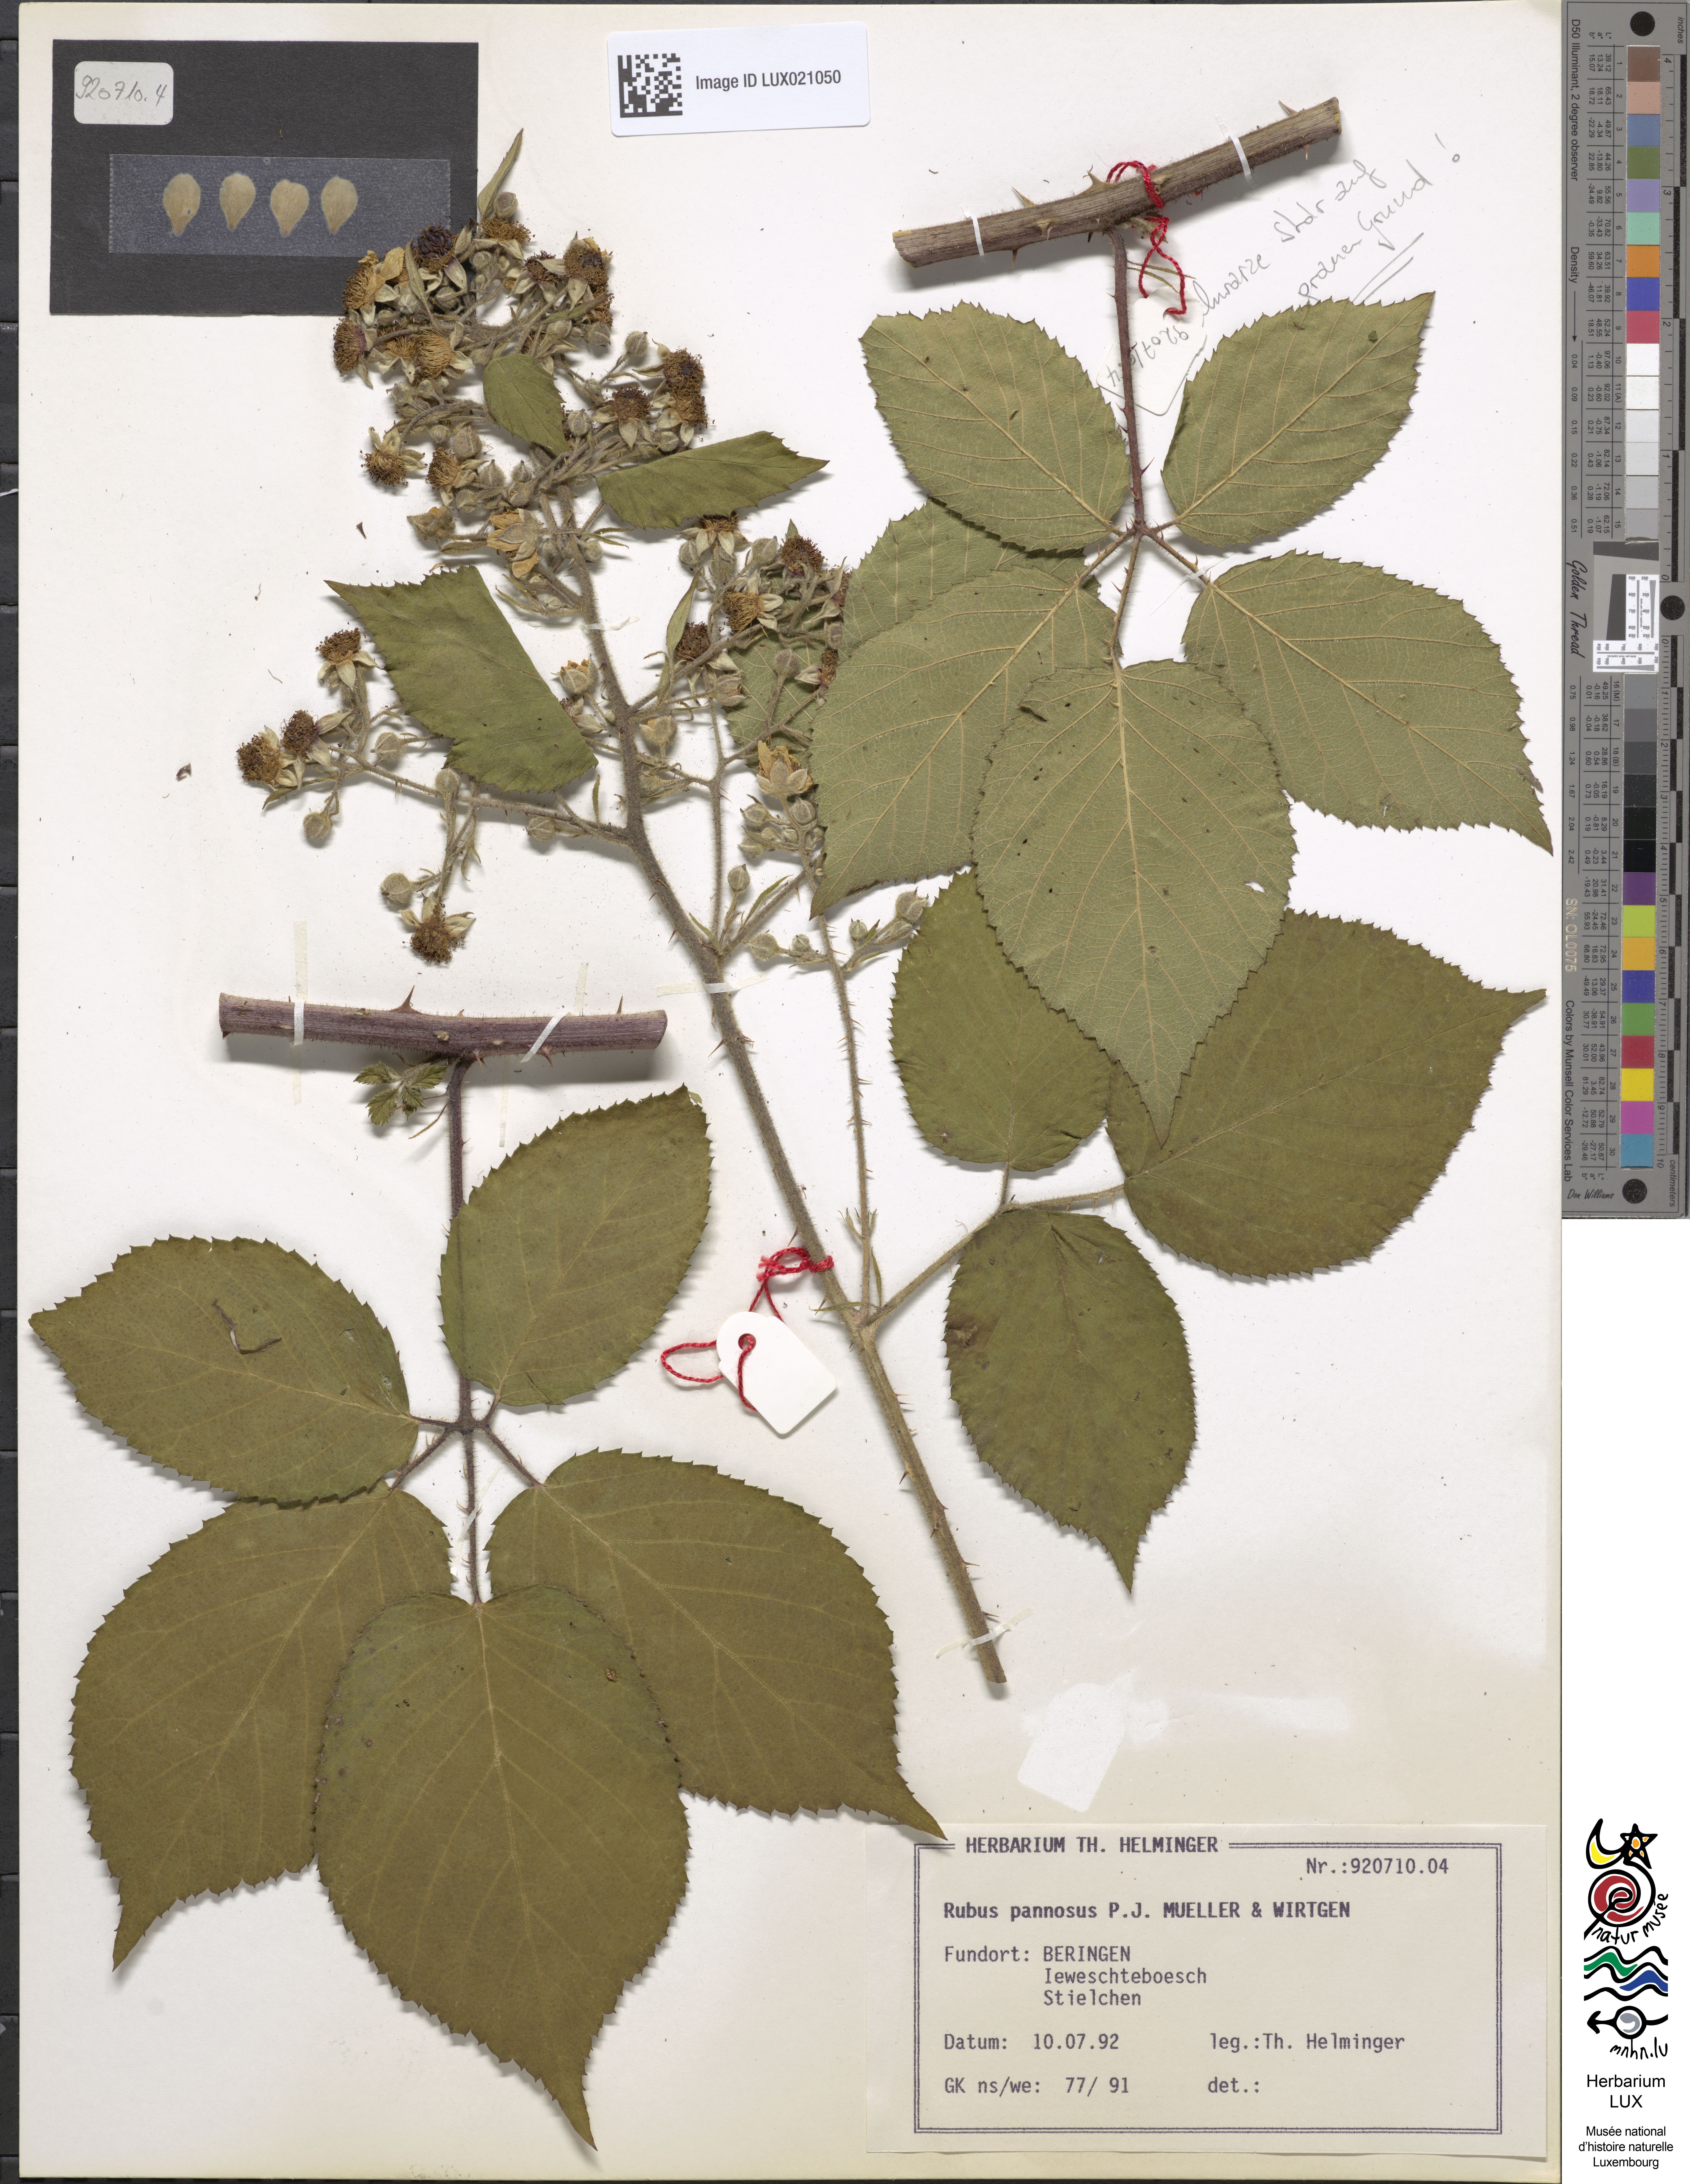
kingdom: Plantae
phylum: Tracheophyta
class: Magnoliopsida
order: Rosales
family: Rosaceae
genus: Rubus
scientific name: Rubus pannosus
